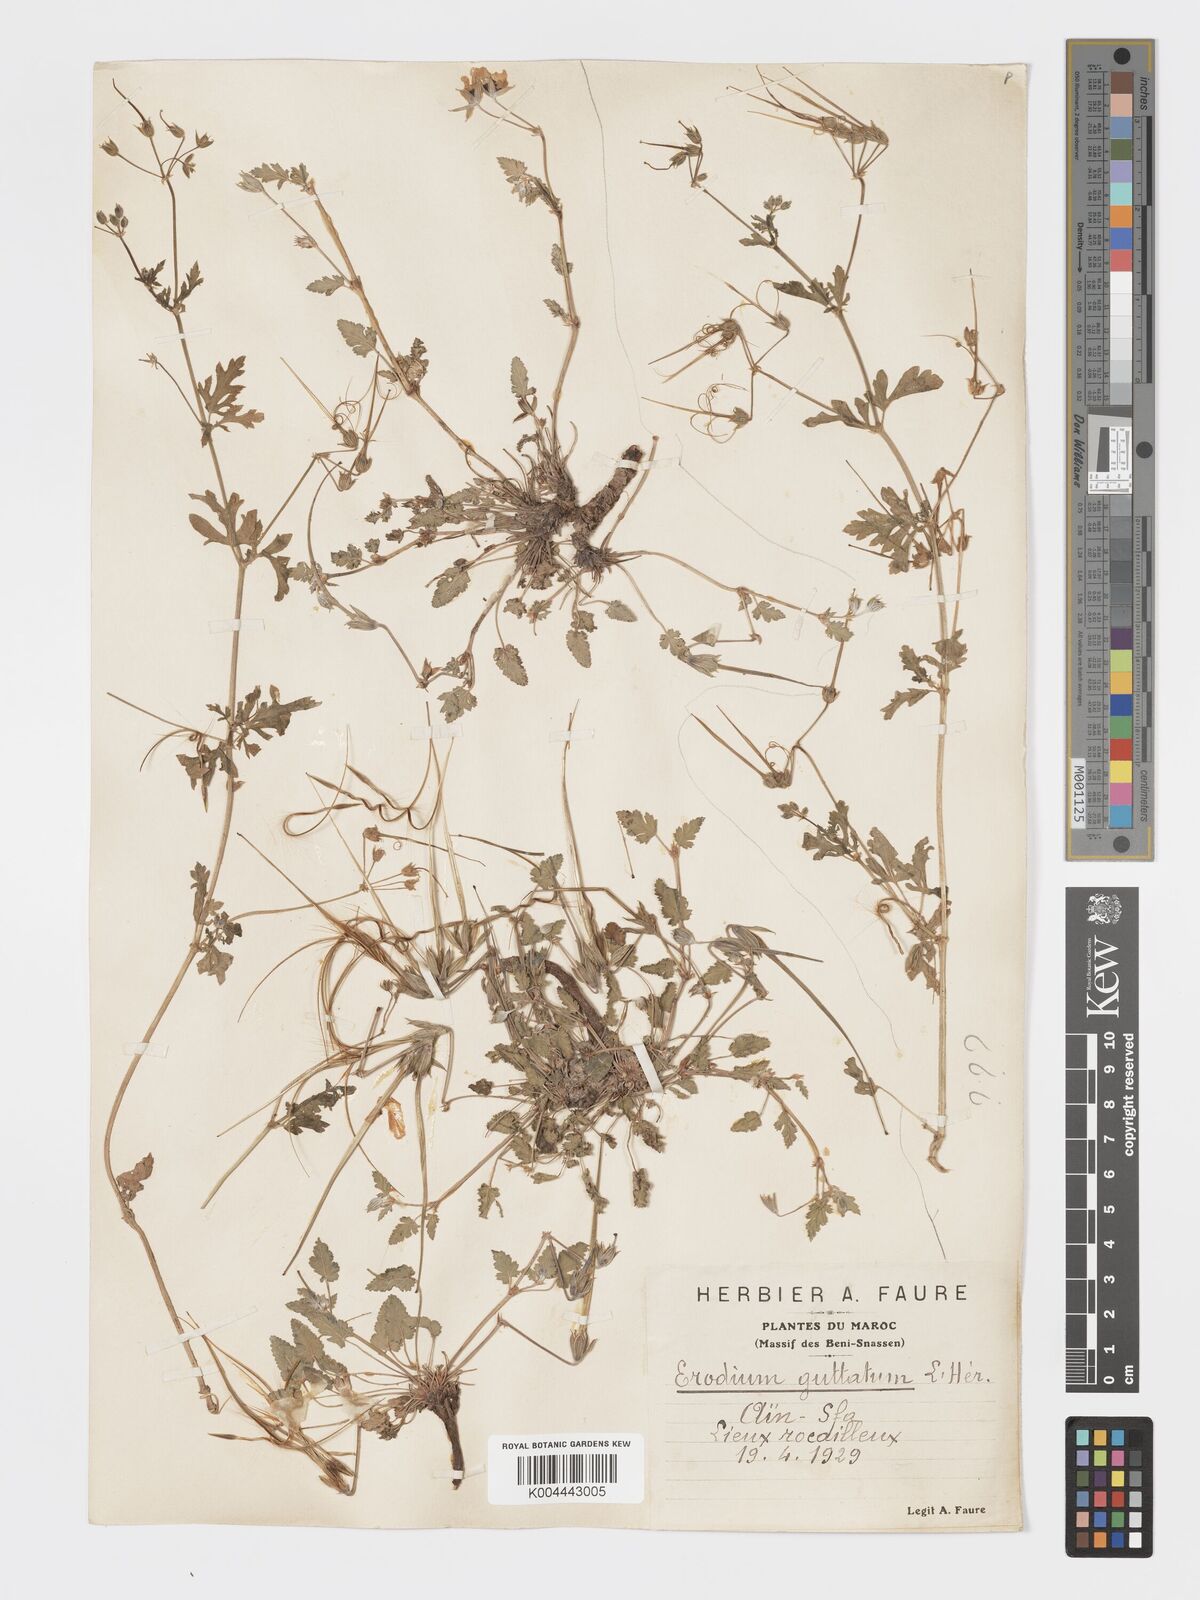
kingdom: Plantae
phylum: Tracheophyta
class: Magnoliopsida
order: Geraniales
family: Geraniaceae
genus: Erodium
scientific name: Erodium guttatum
